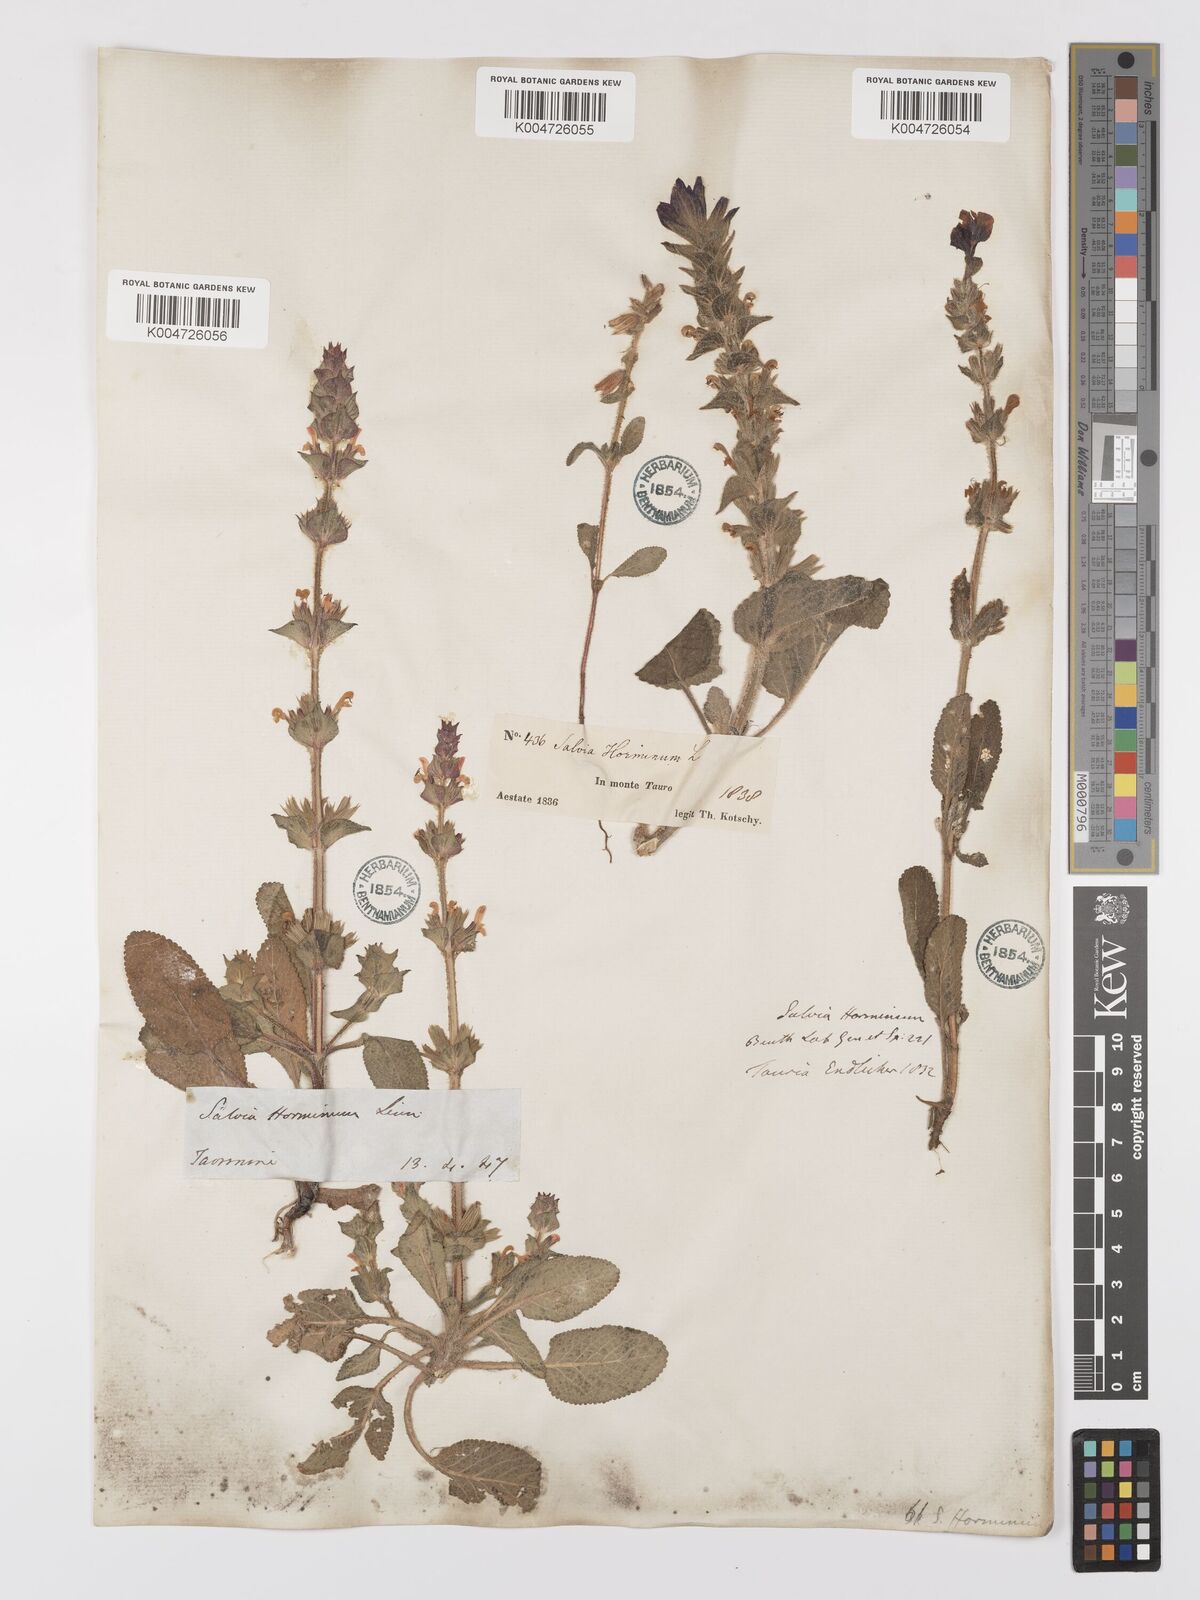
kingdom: Plantae
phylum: Tracheophyta
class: Magnoliopsida
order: Lamiales
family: Lamiaceae
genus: Salvia
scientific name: Salvia viridis
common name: Annual clary
